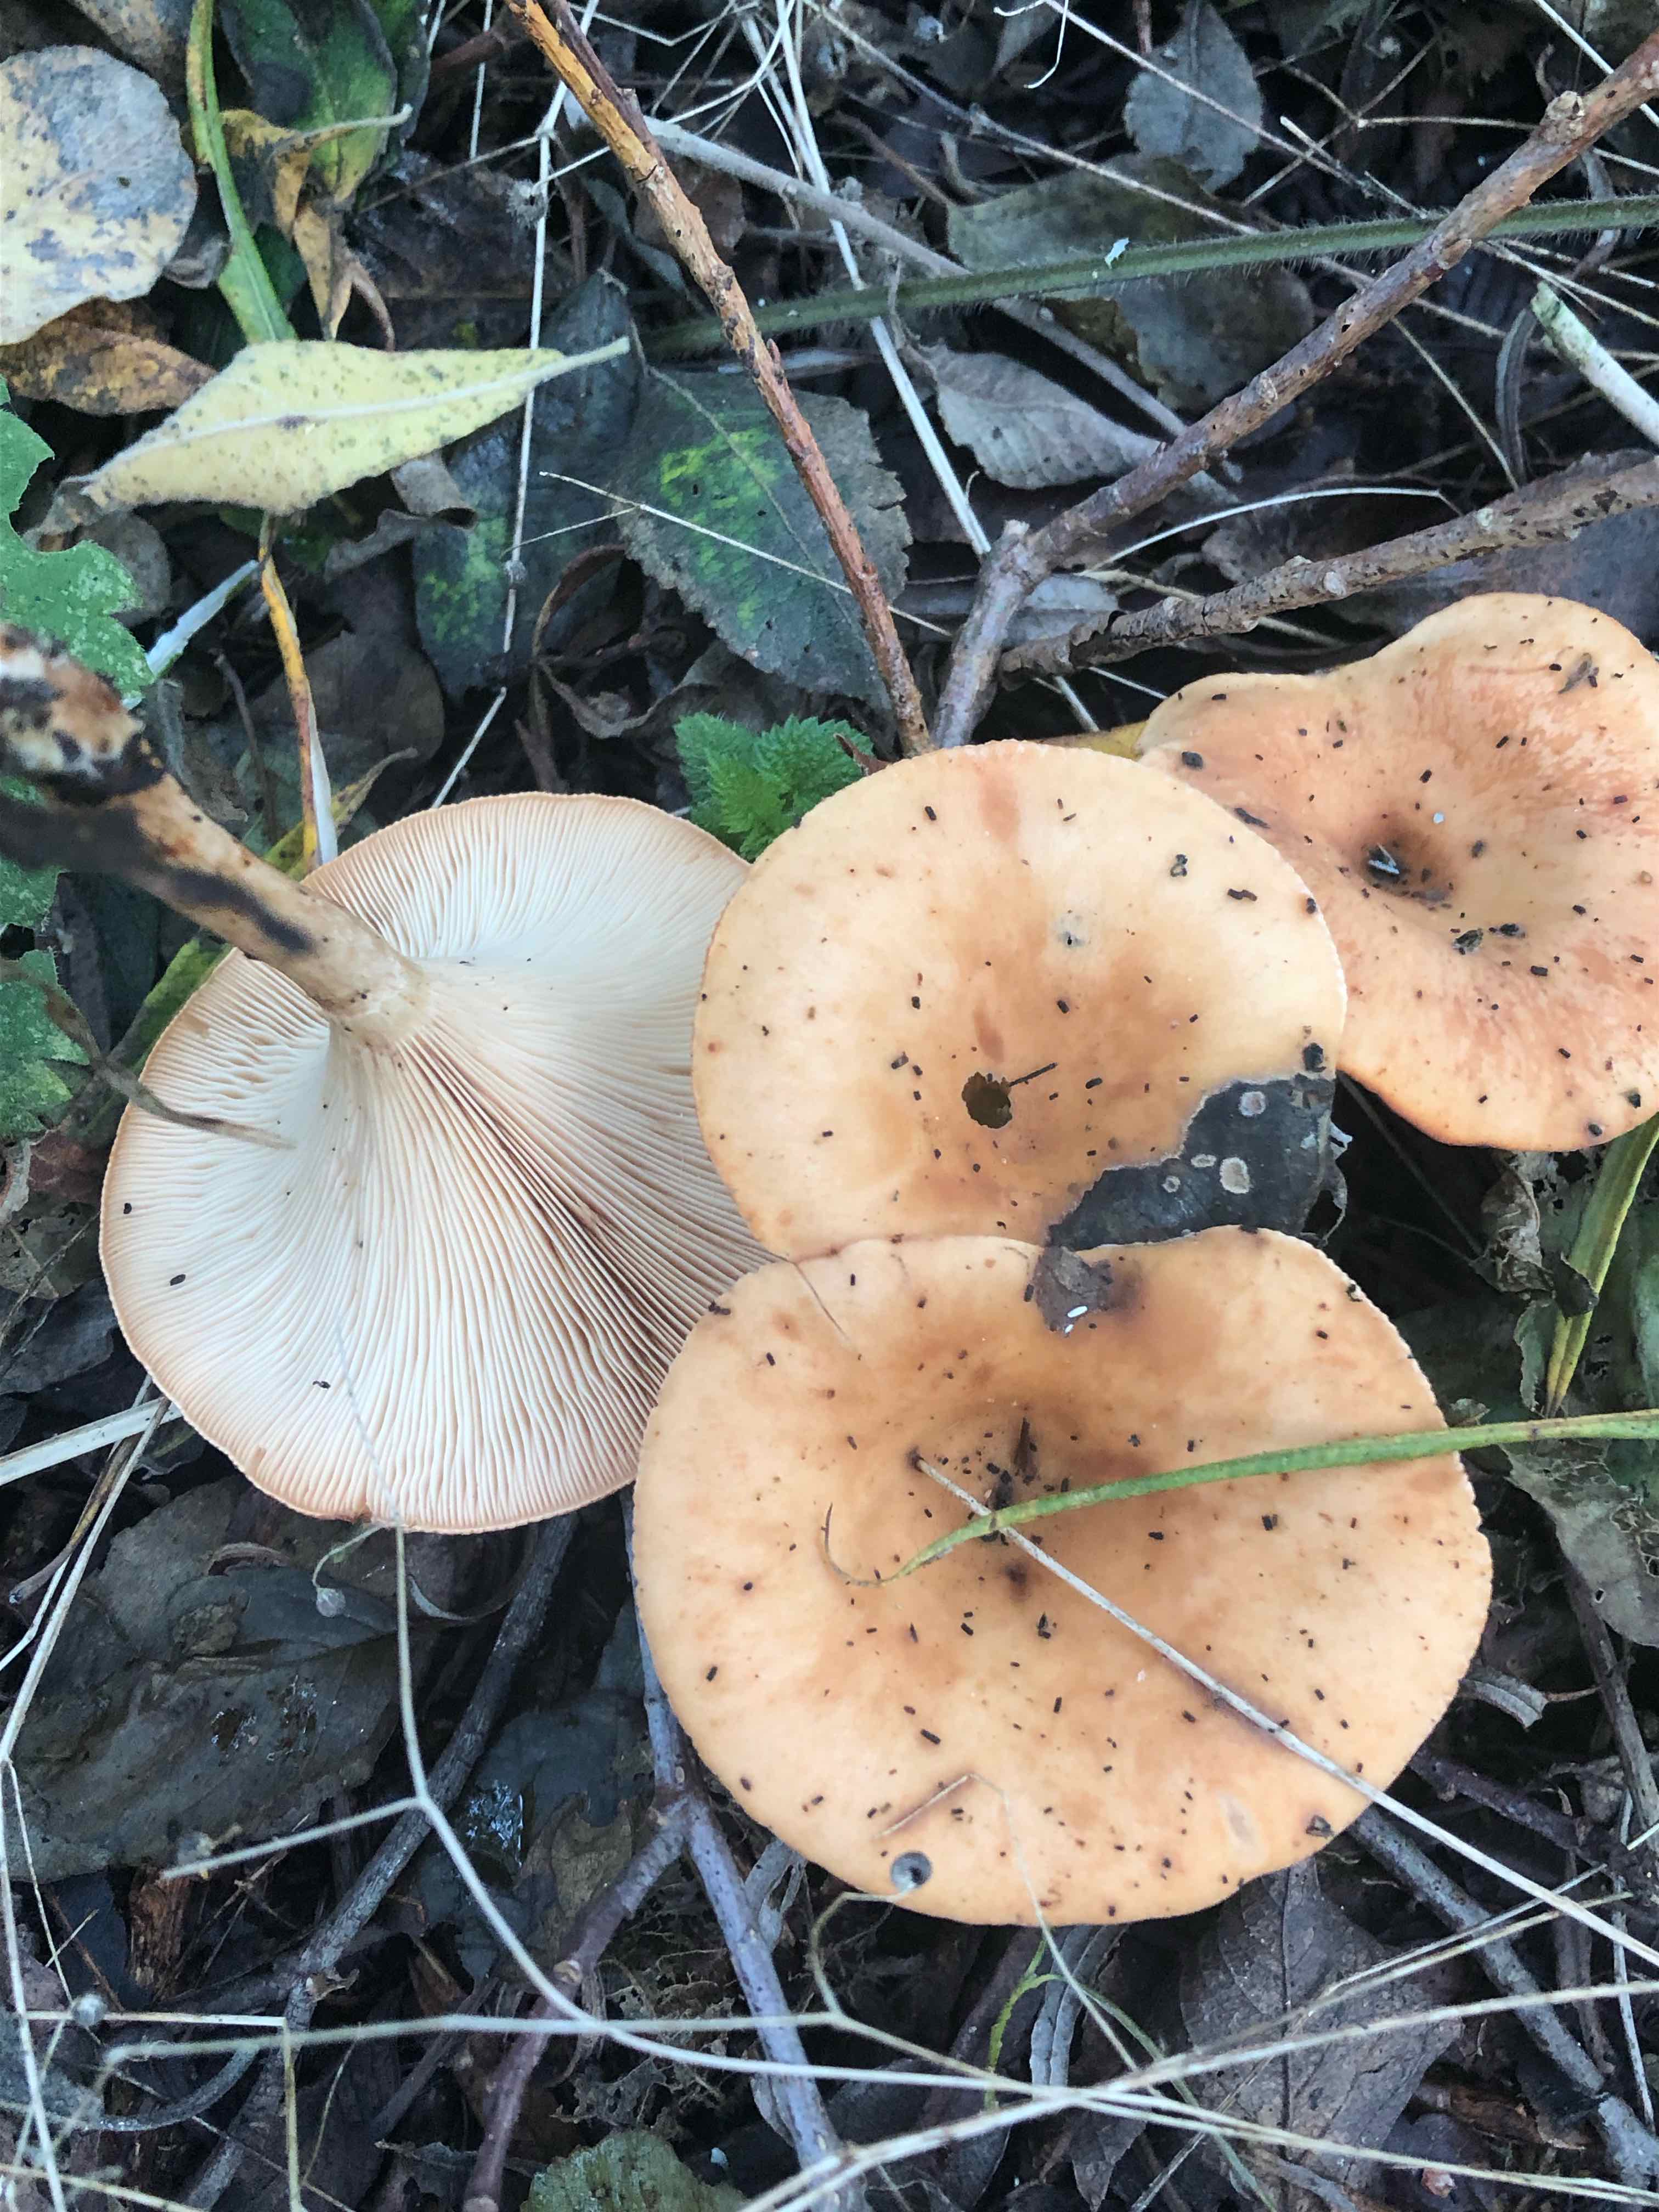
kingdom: Fungi
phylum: Basidiomycota
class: Agaricomycetes
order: Agaricales
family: Tricholomataceae
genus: Paralepista
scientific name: Paralepista flaccida
